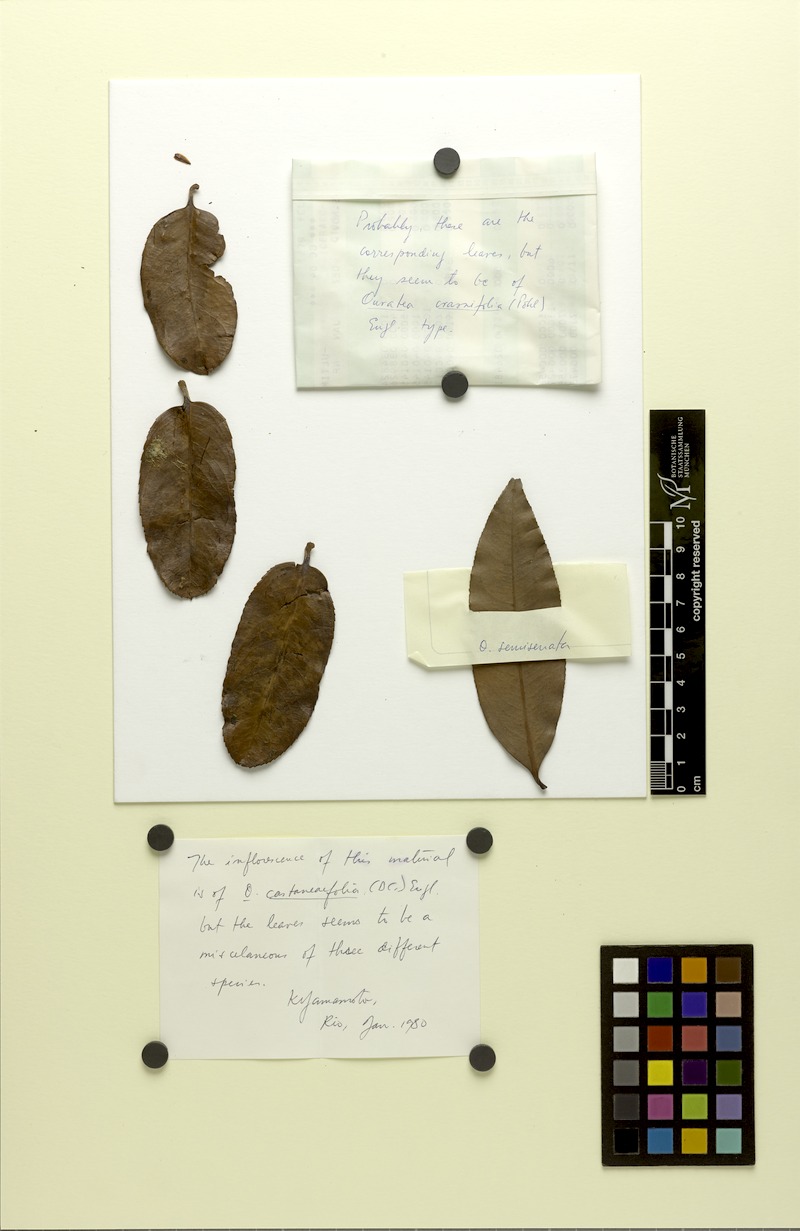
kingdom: Plantae
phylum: Tracheophyta
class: Magnoliopsida
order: Malpighiales
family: Ochnaceae
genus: Ouratea
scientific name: Ouratea crassifolia
